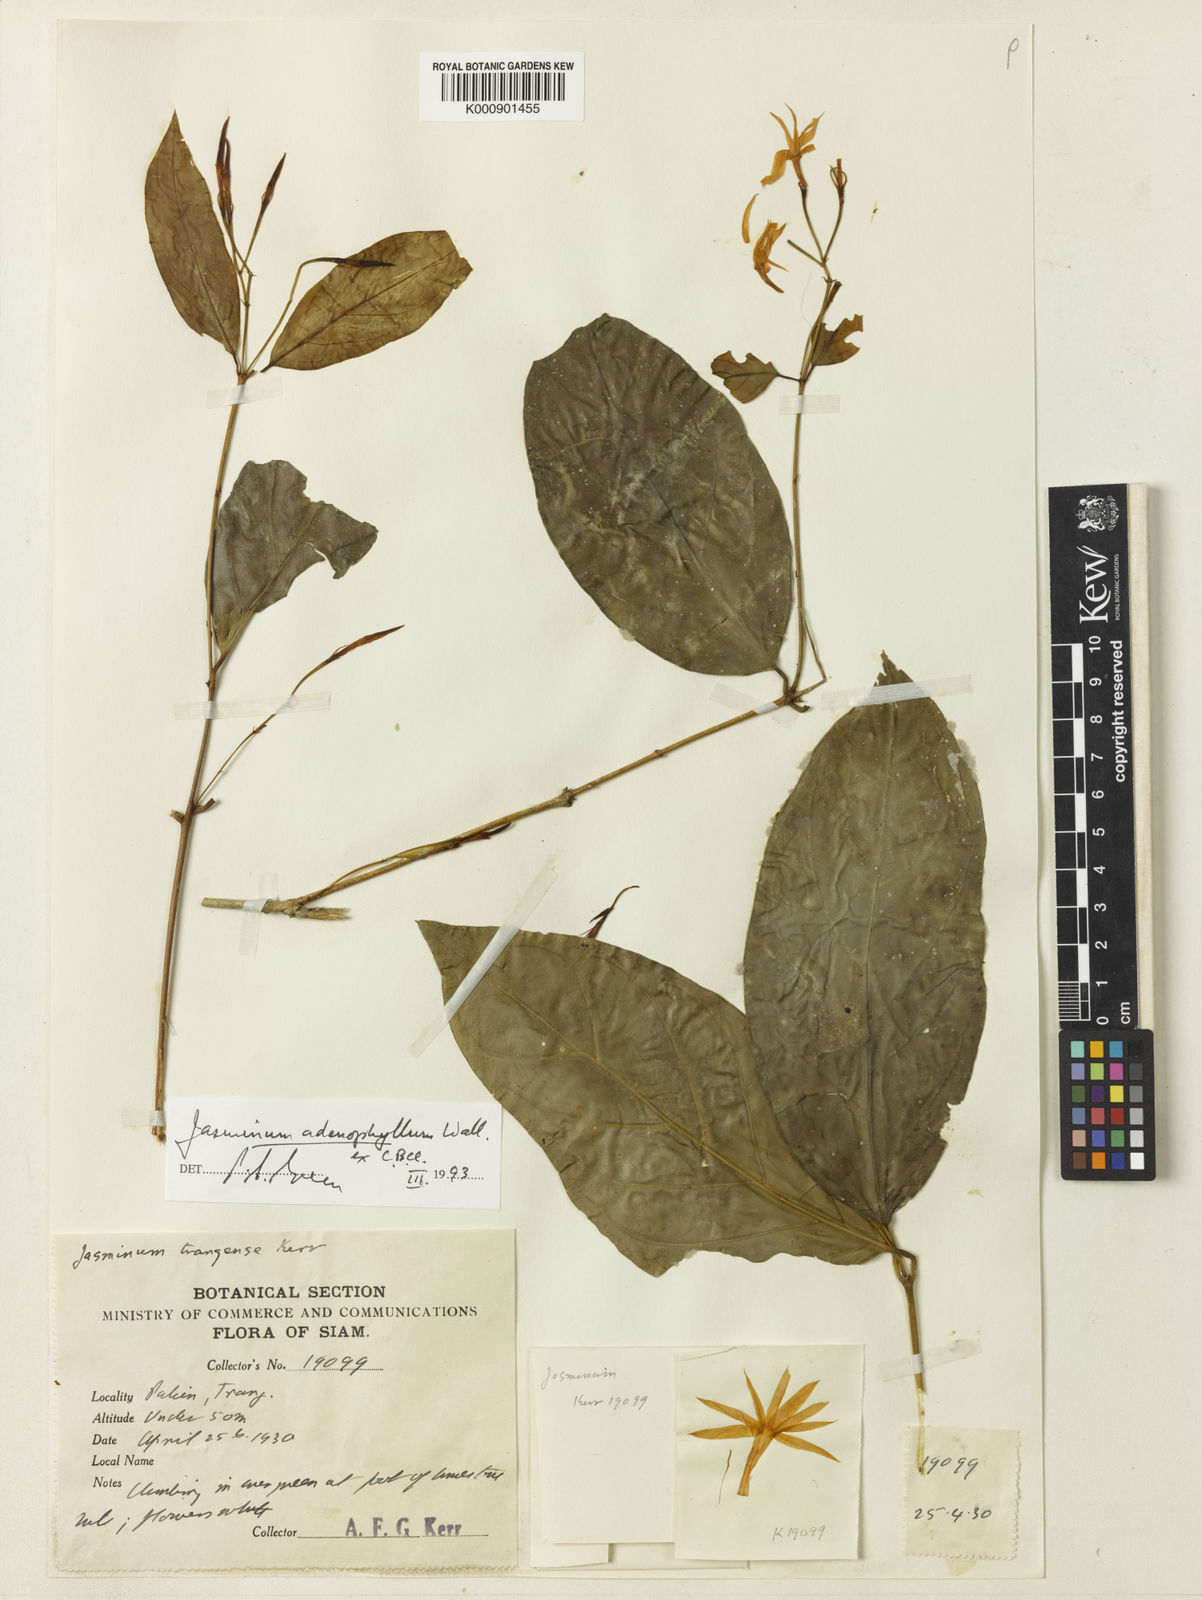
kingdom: Plantae
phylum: Tracheophyta
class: Magnoliopsida
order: Lamiales
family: Oleaceae
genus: Jasminum
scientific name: Jasminum adenophyllum
